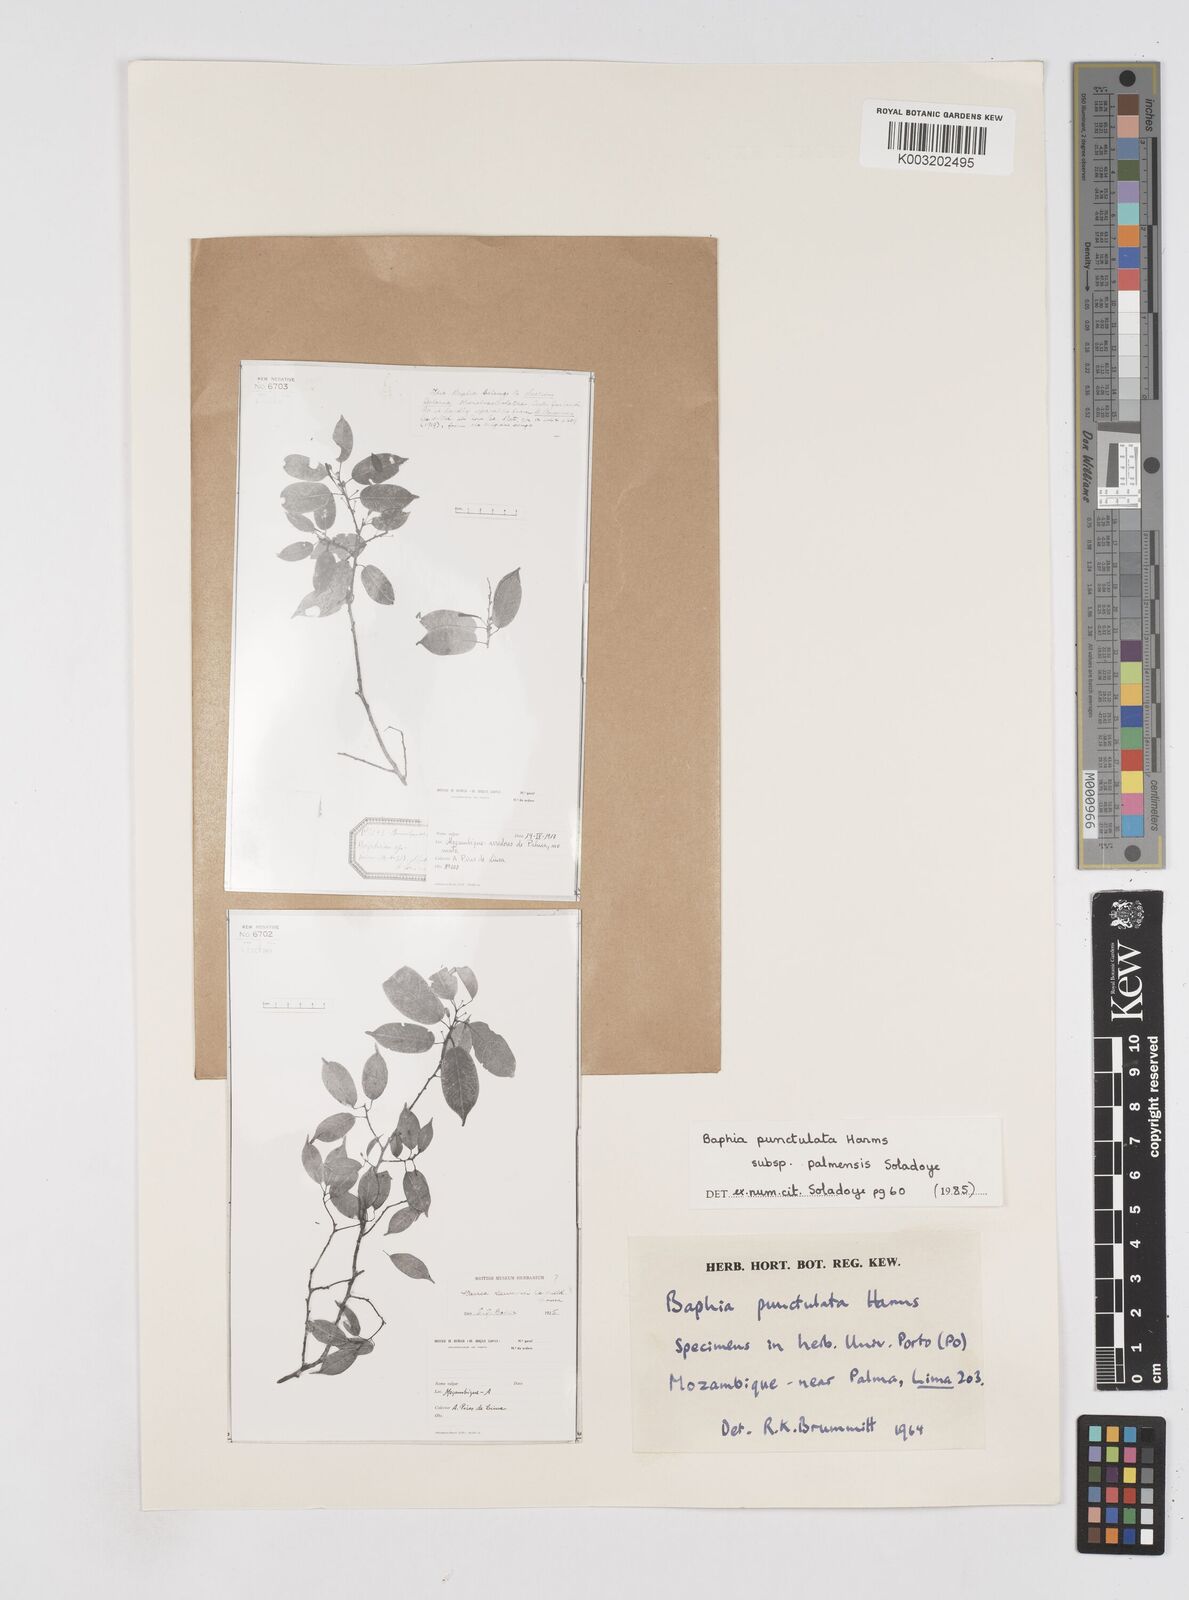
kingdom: Plantae
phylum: Tracheophyta
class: Magnoliopsida
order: Fabales
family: Fabaceae
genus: Baphia
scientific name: Baphia punctulata
